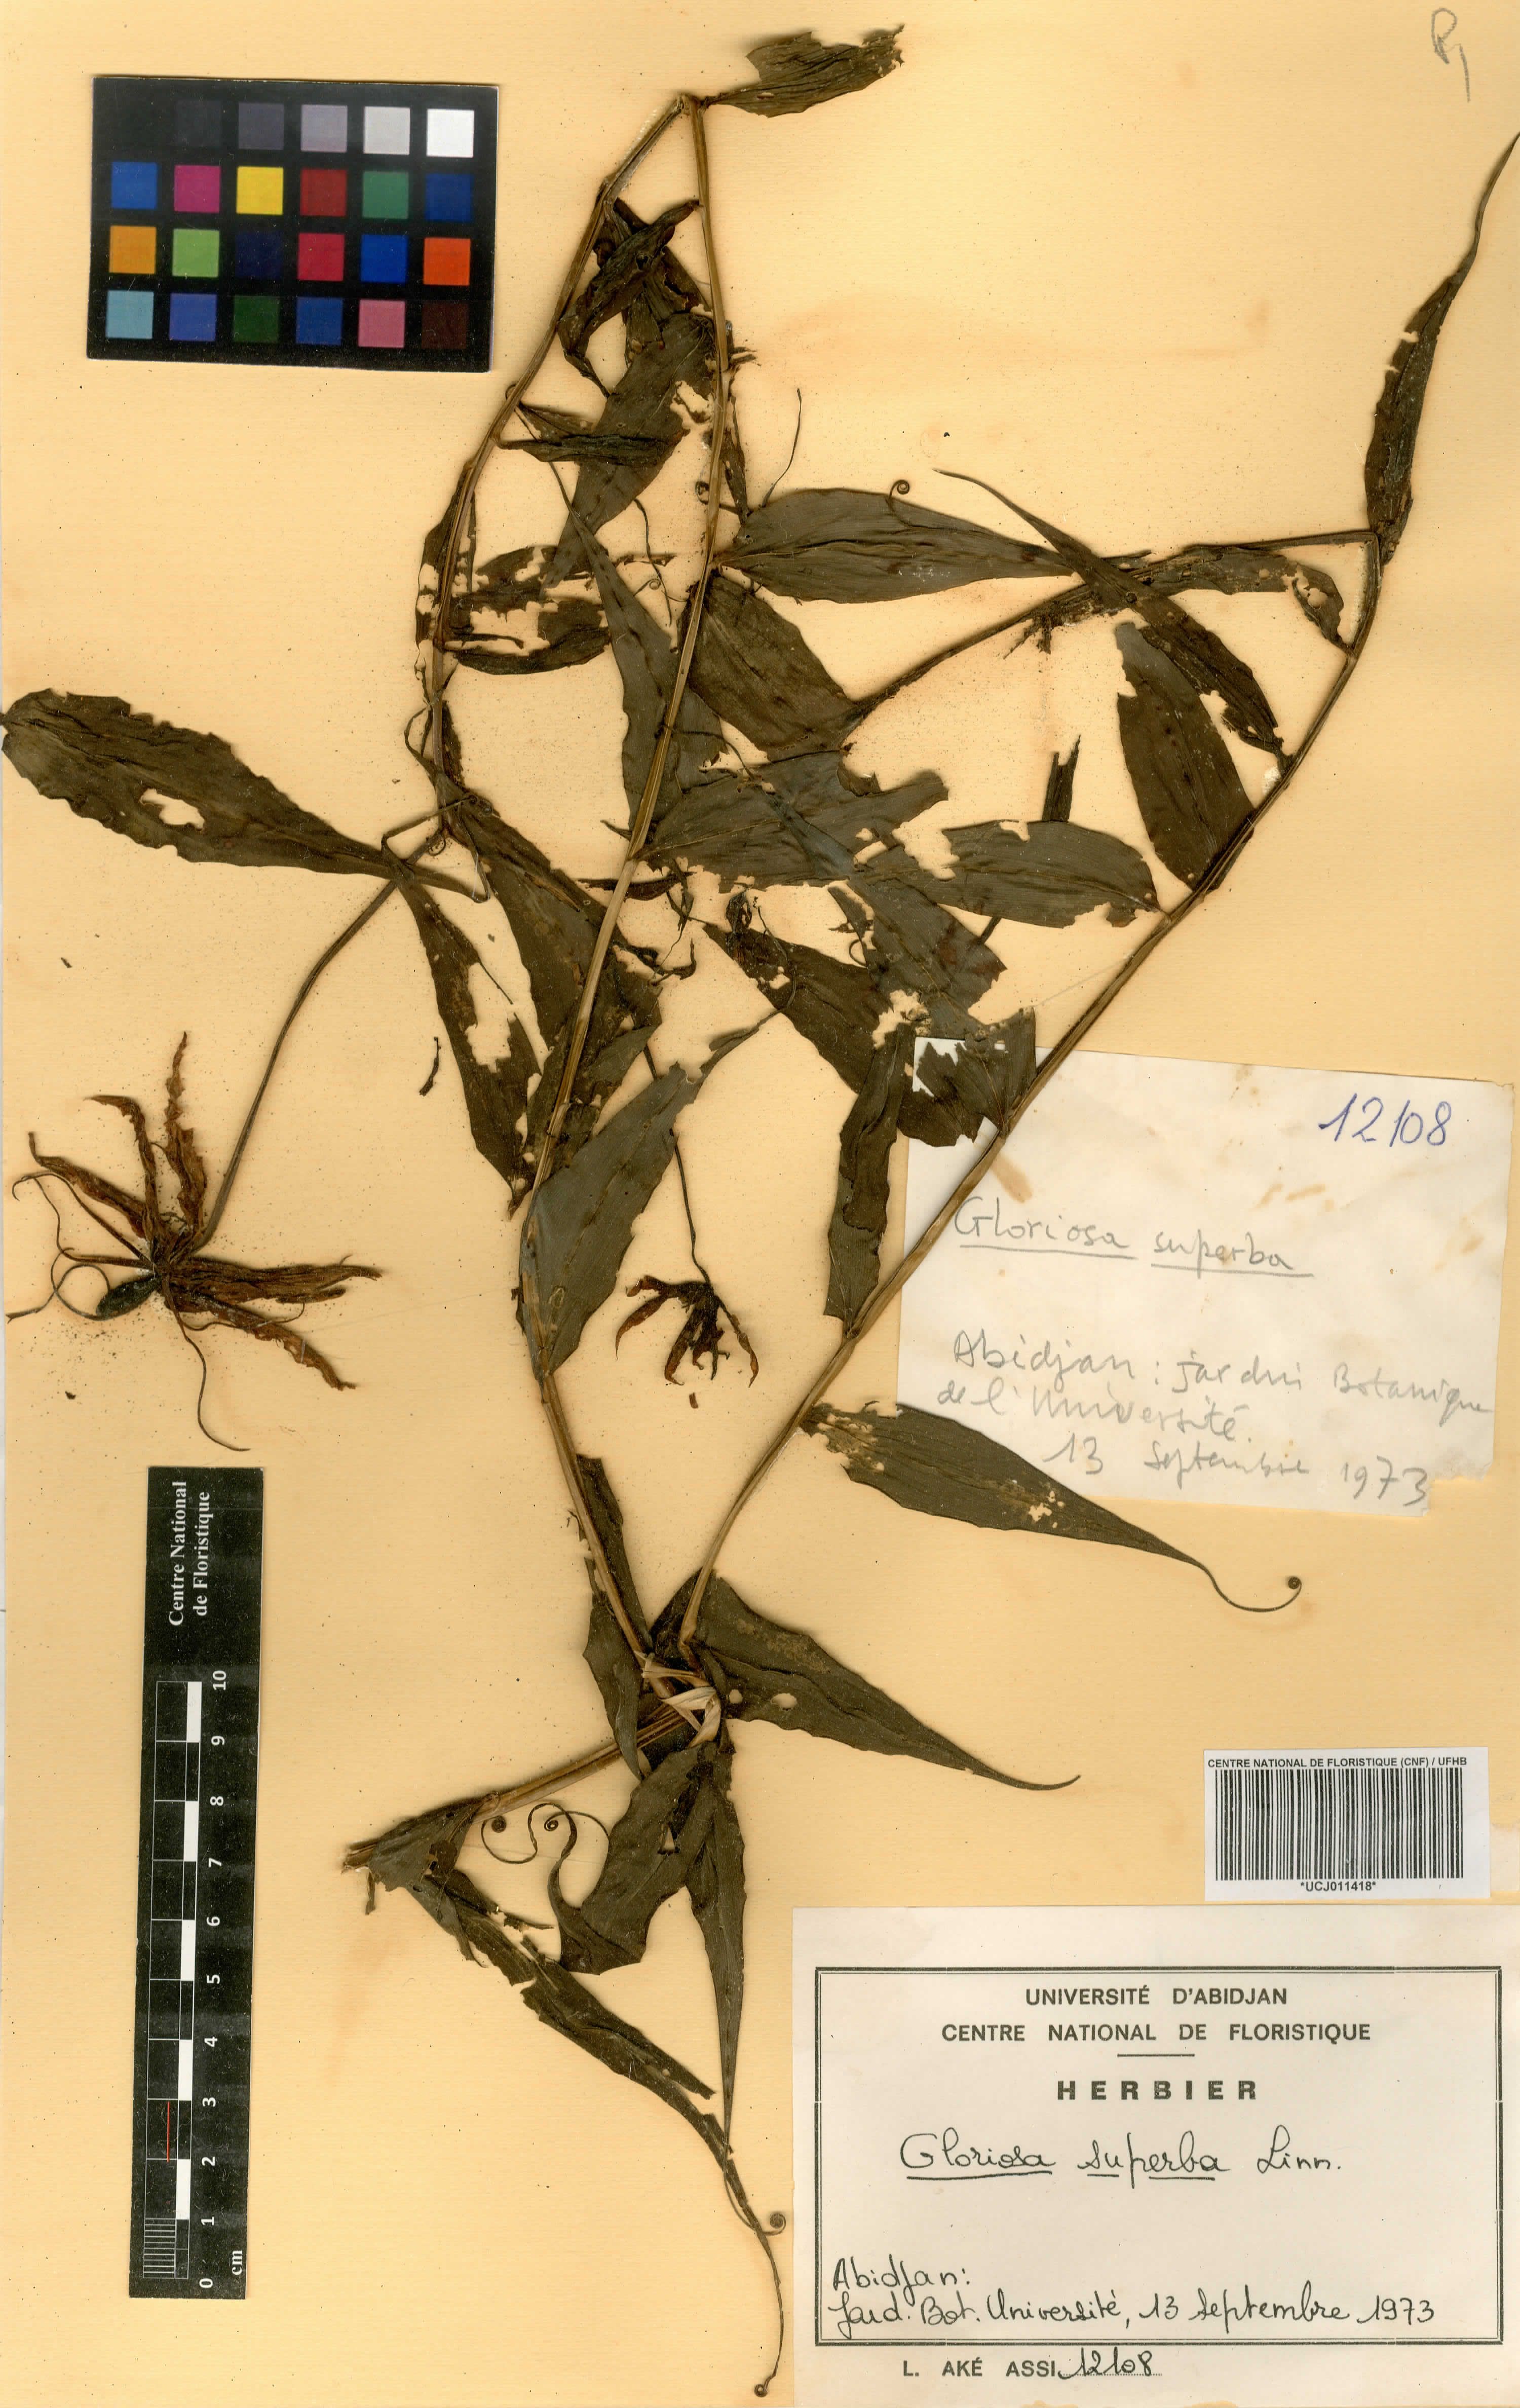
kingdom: Plantae
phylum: Tracheophyta
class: Liliopsida
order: Liliales
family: Colchicaceae
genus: Gloriosa
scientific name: Gloriosa superba
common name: Flame lily
